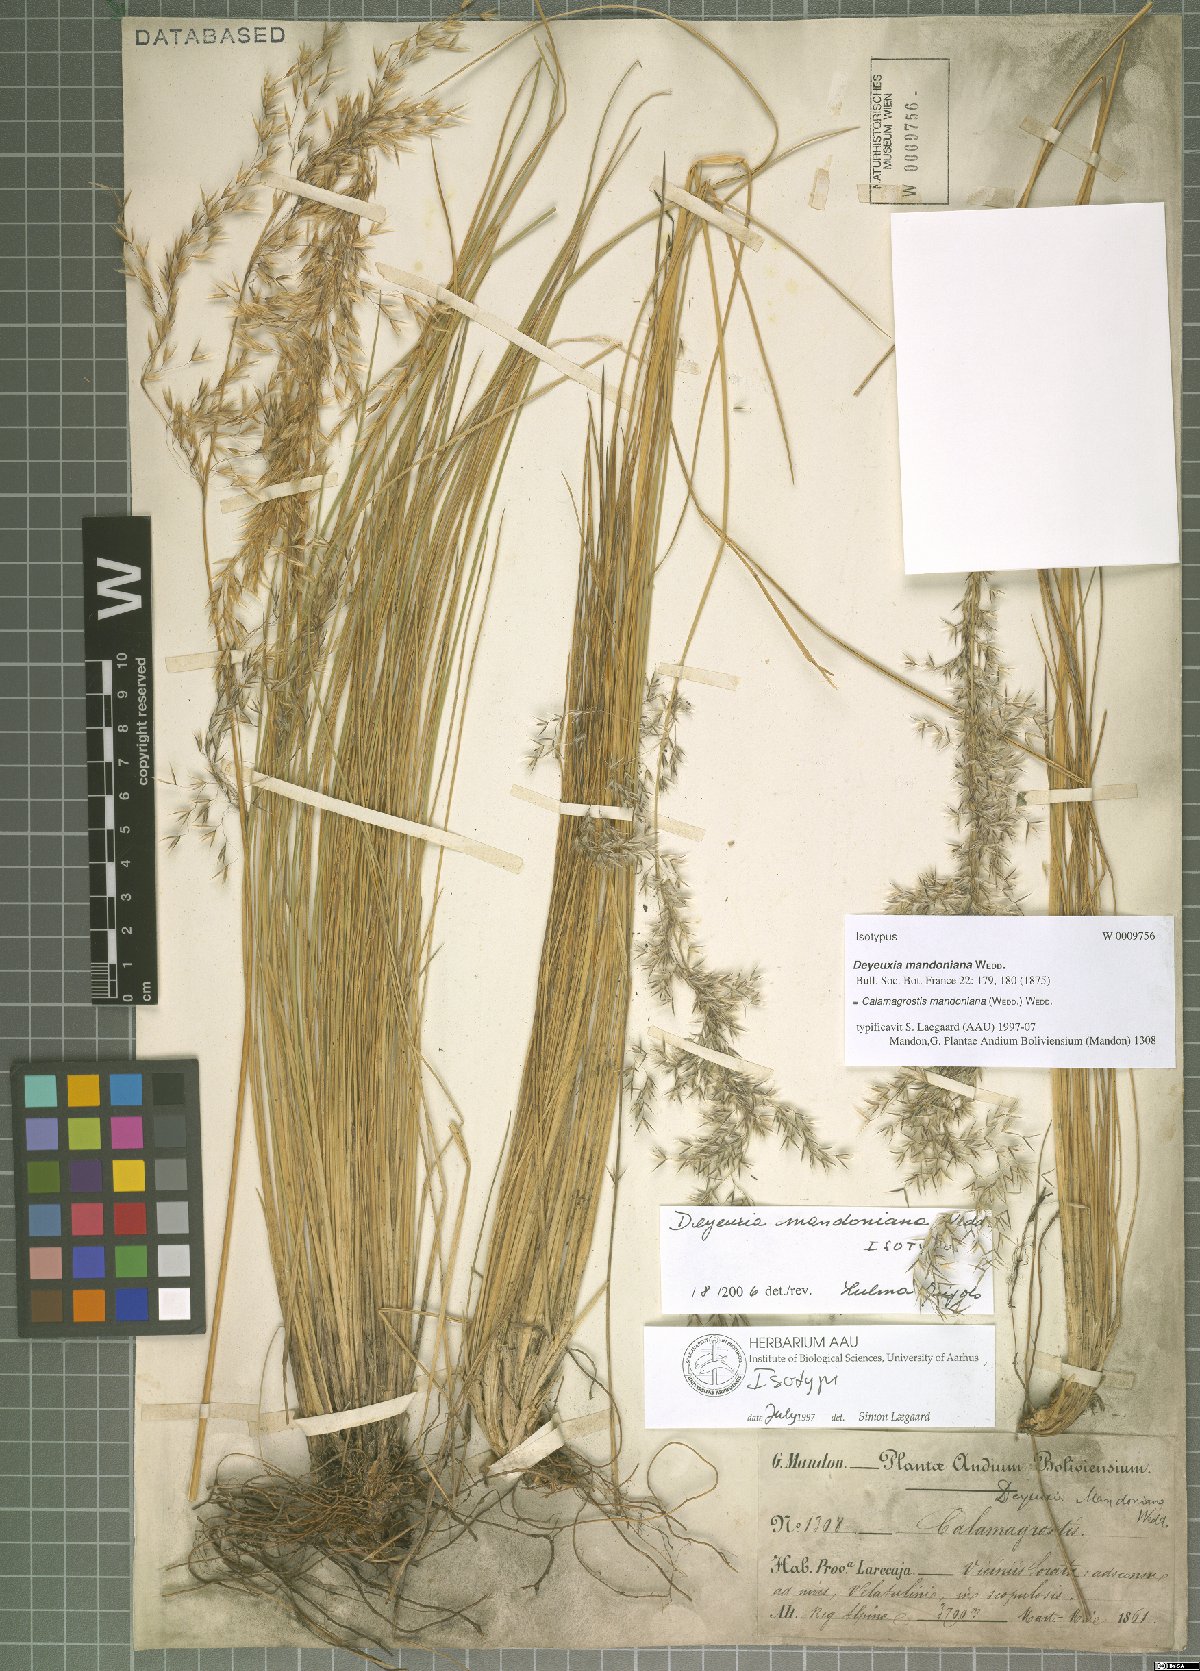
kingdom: Plantae
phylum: Tracheophyta
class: Liliopsida
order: Poales
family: Poaceae
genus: Cinnagrostis
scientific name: Cinnagrostis mandoniana
